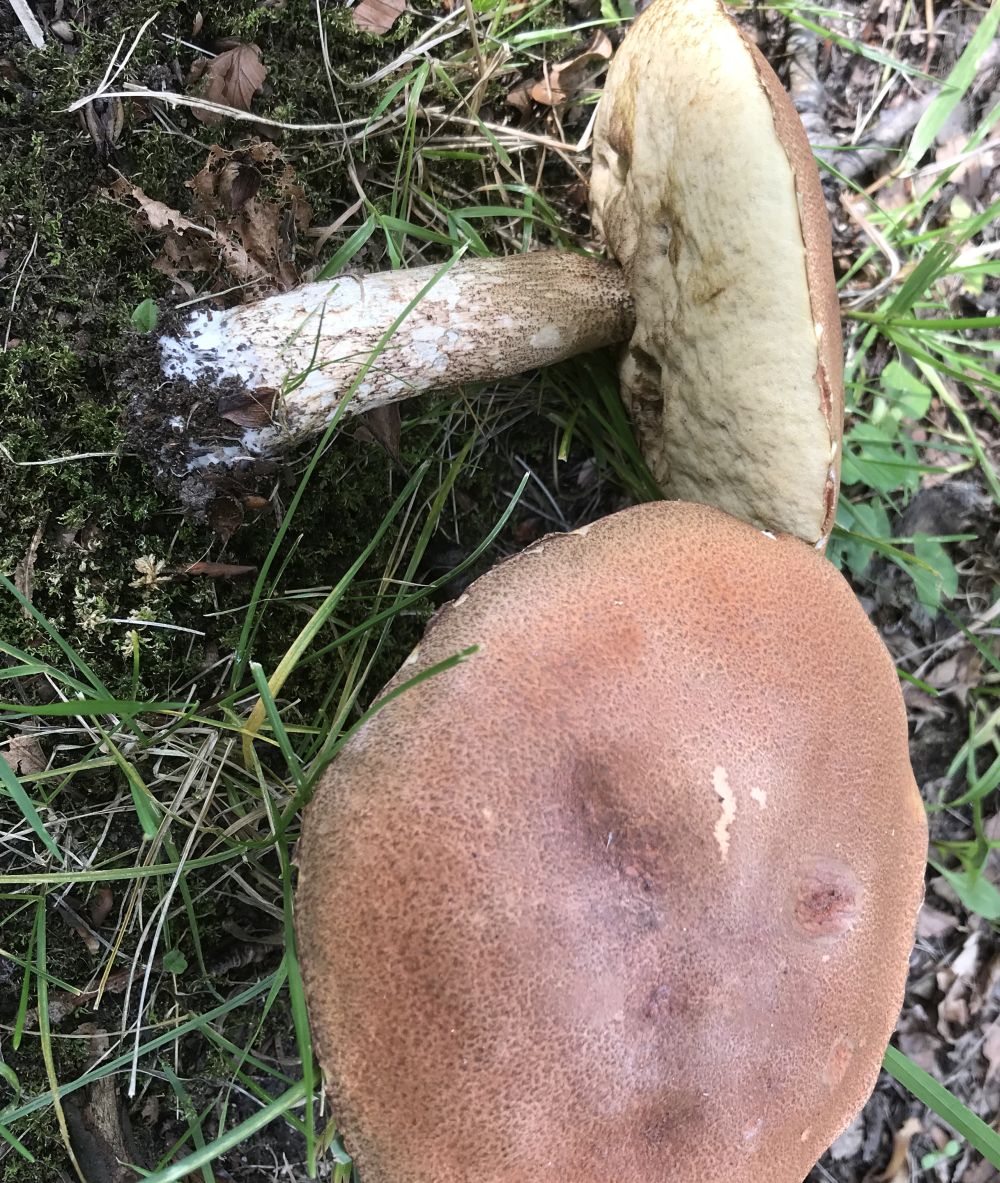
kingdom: Fungi
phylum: Basidiomycota
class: Agaricomycetes
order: Boletales
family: Boletaceae
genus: Leccinum
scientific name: Leccinum aurantiacum
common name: rustrød skælrørhat
